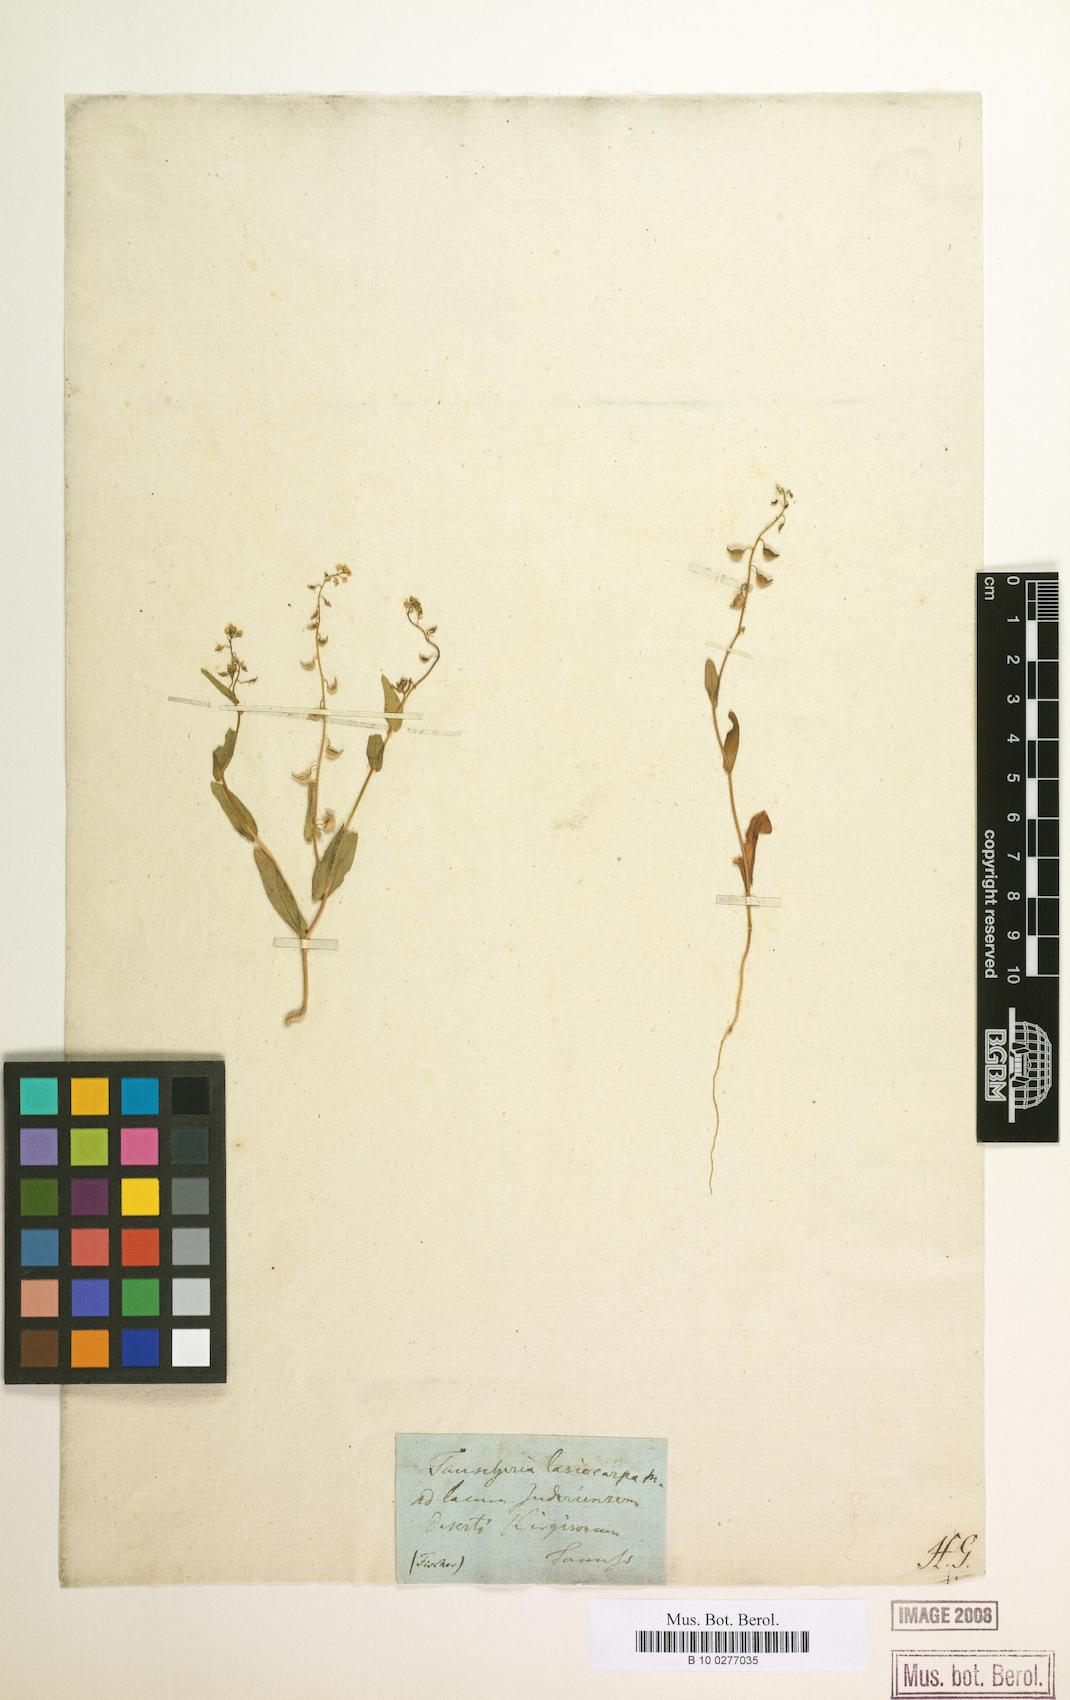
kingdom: Plantae
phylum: Tracheophyta
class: Magnoliopsida
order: Brassicales
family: Brassicaceae
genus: Isatis
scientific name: Isatis gymnocarpa
